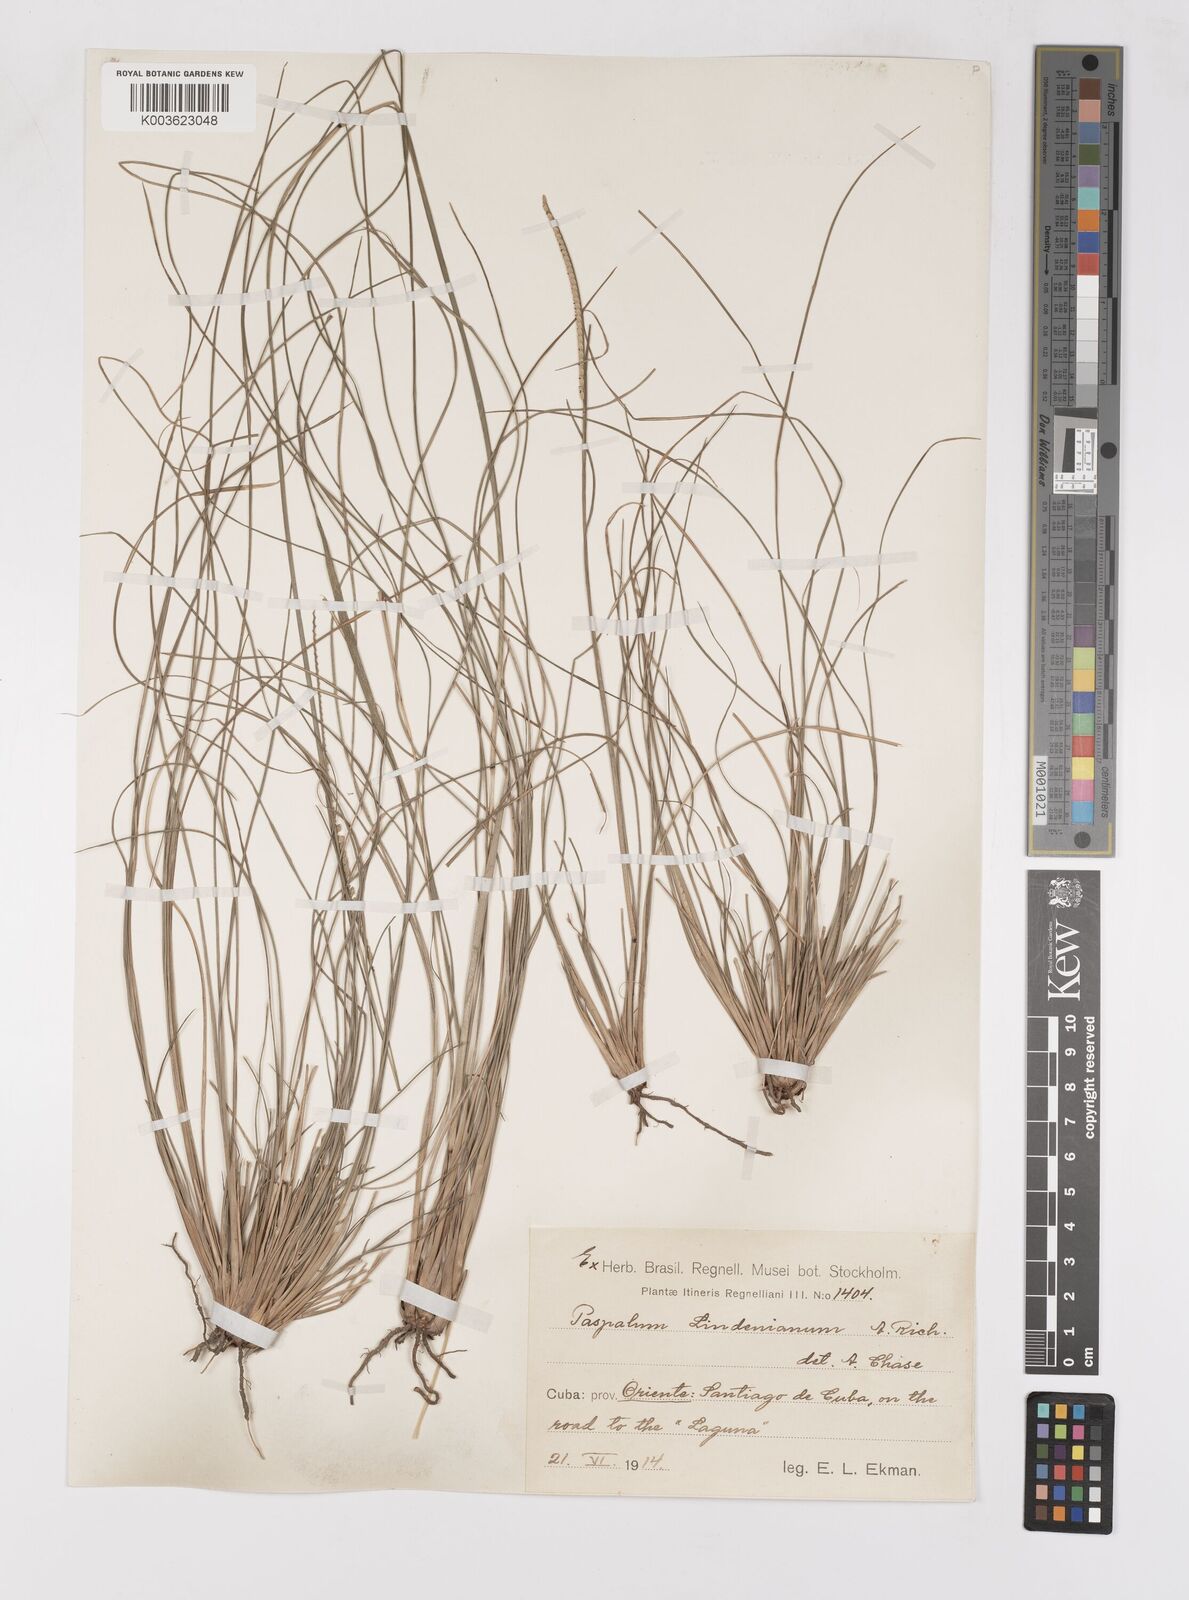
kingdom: Plantae
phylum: Tracheophyta
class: Liliopsida
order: Poales
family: Poaceae
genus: Paspalum
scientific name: Paspalum lindenianum
